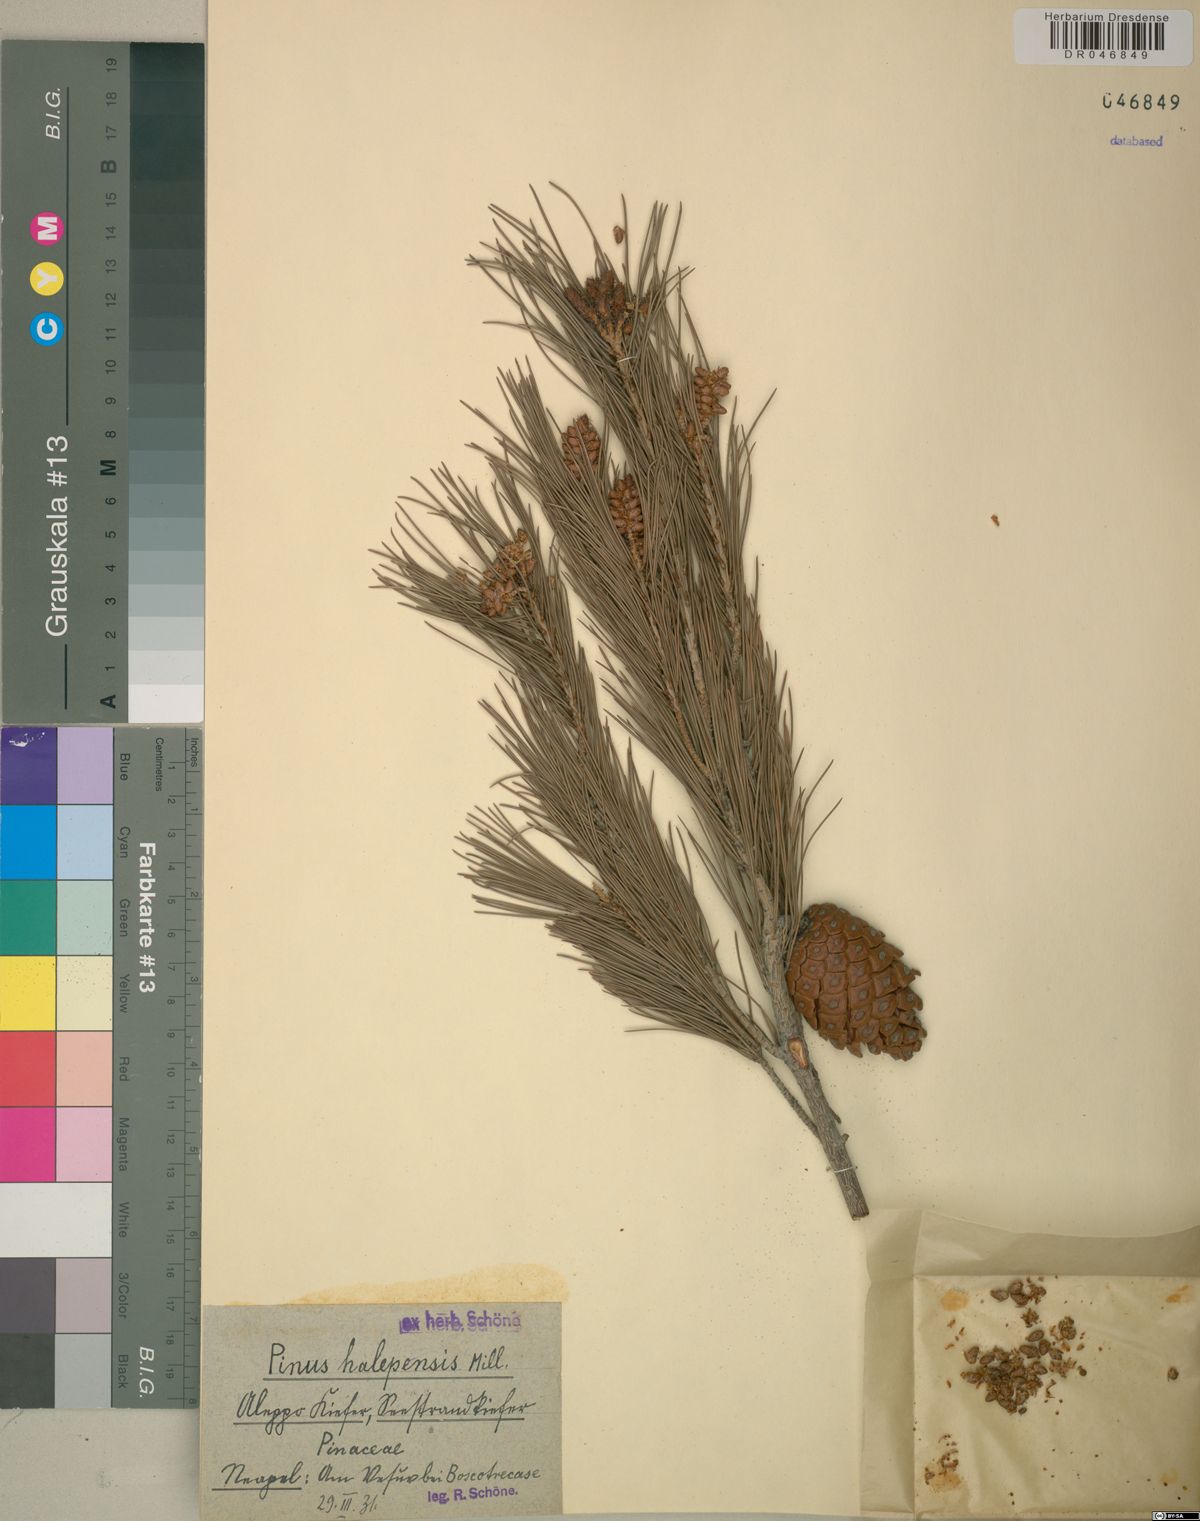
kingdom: Plantae
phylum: Tracheophyta
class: Pinopsida
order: Pinales
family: Pinaceae
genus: Pinus
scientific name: Pinus halepensis
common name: Aleppo pine
